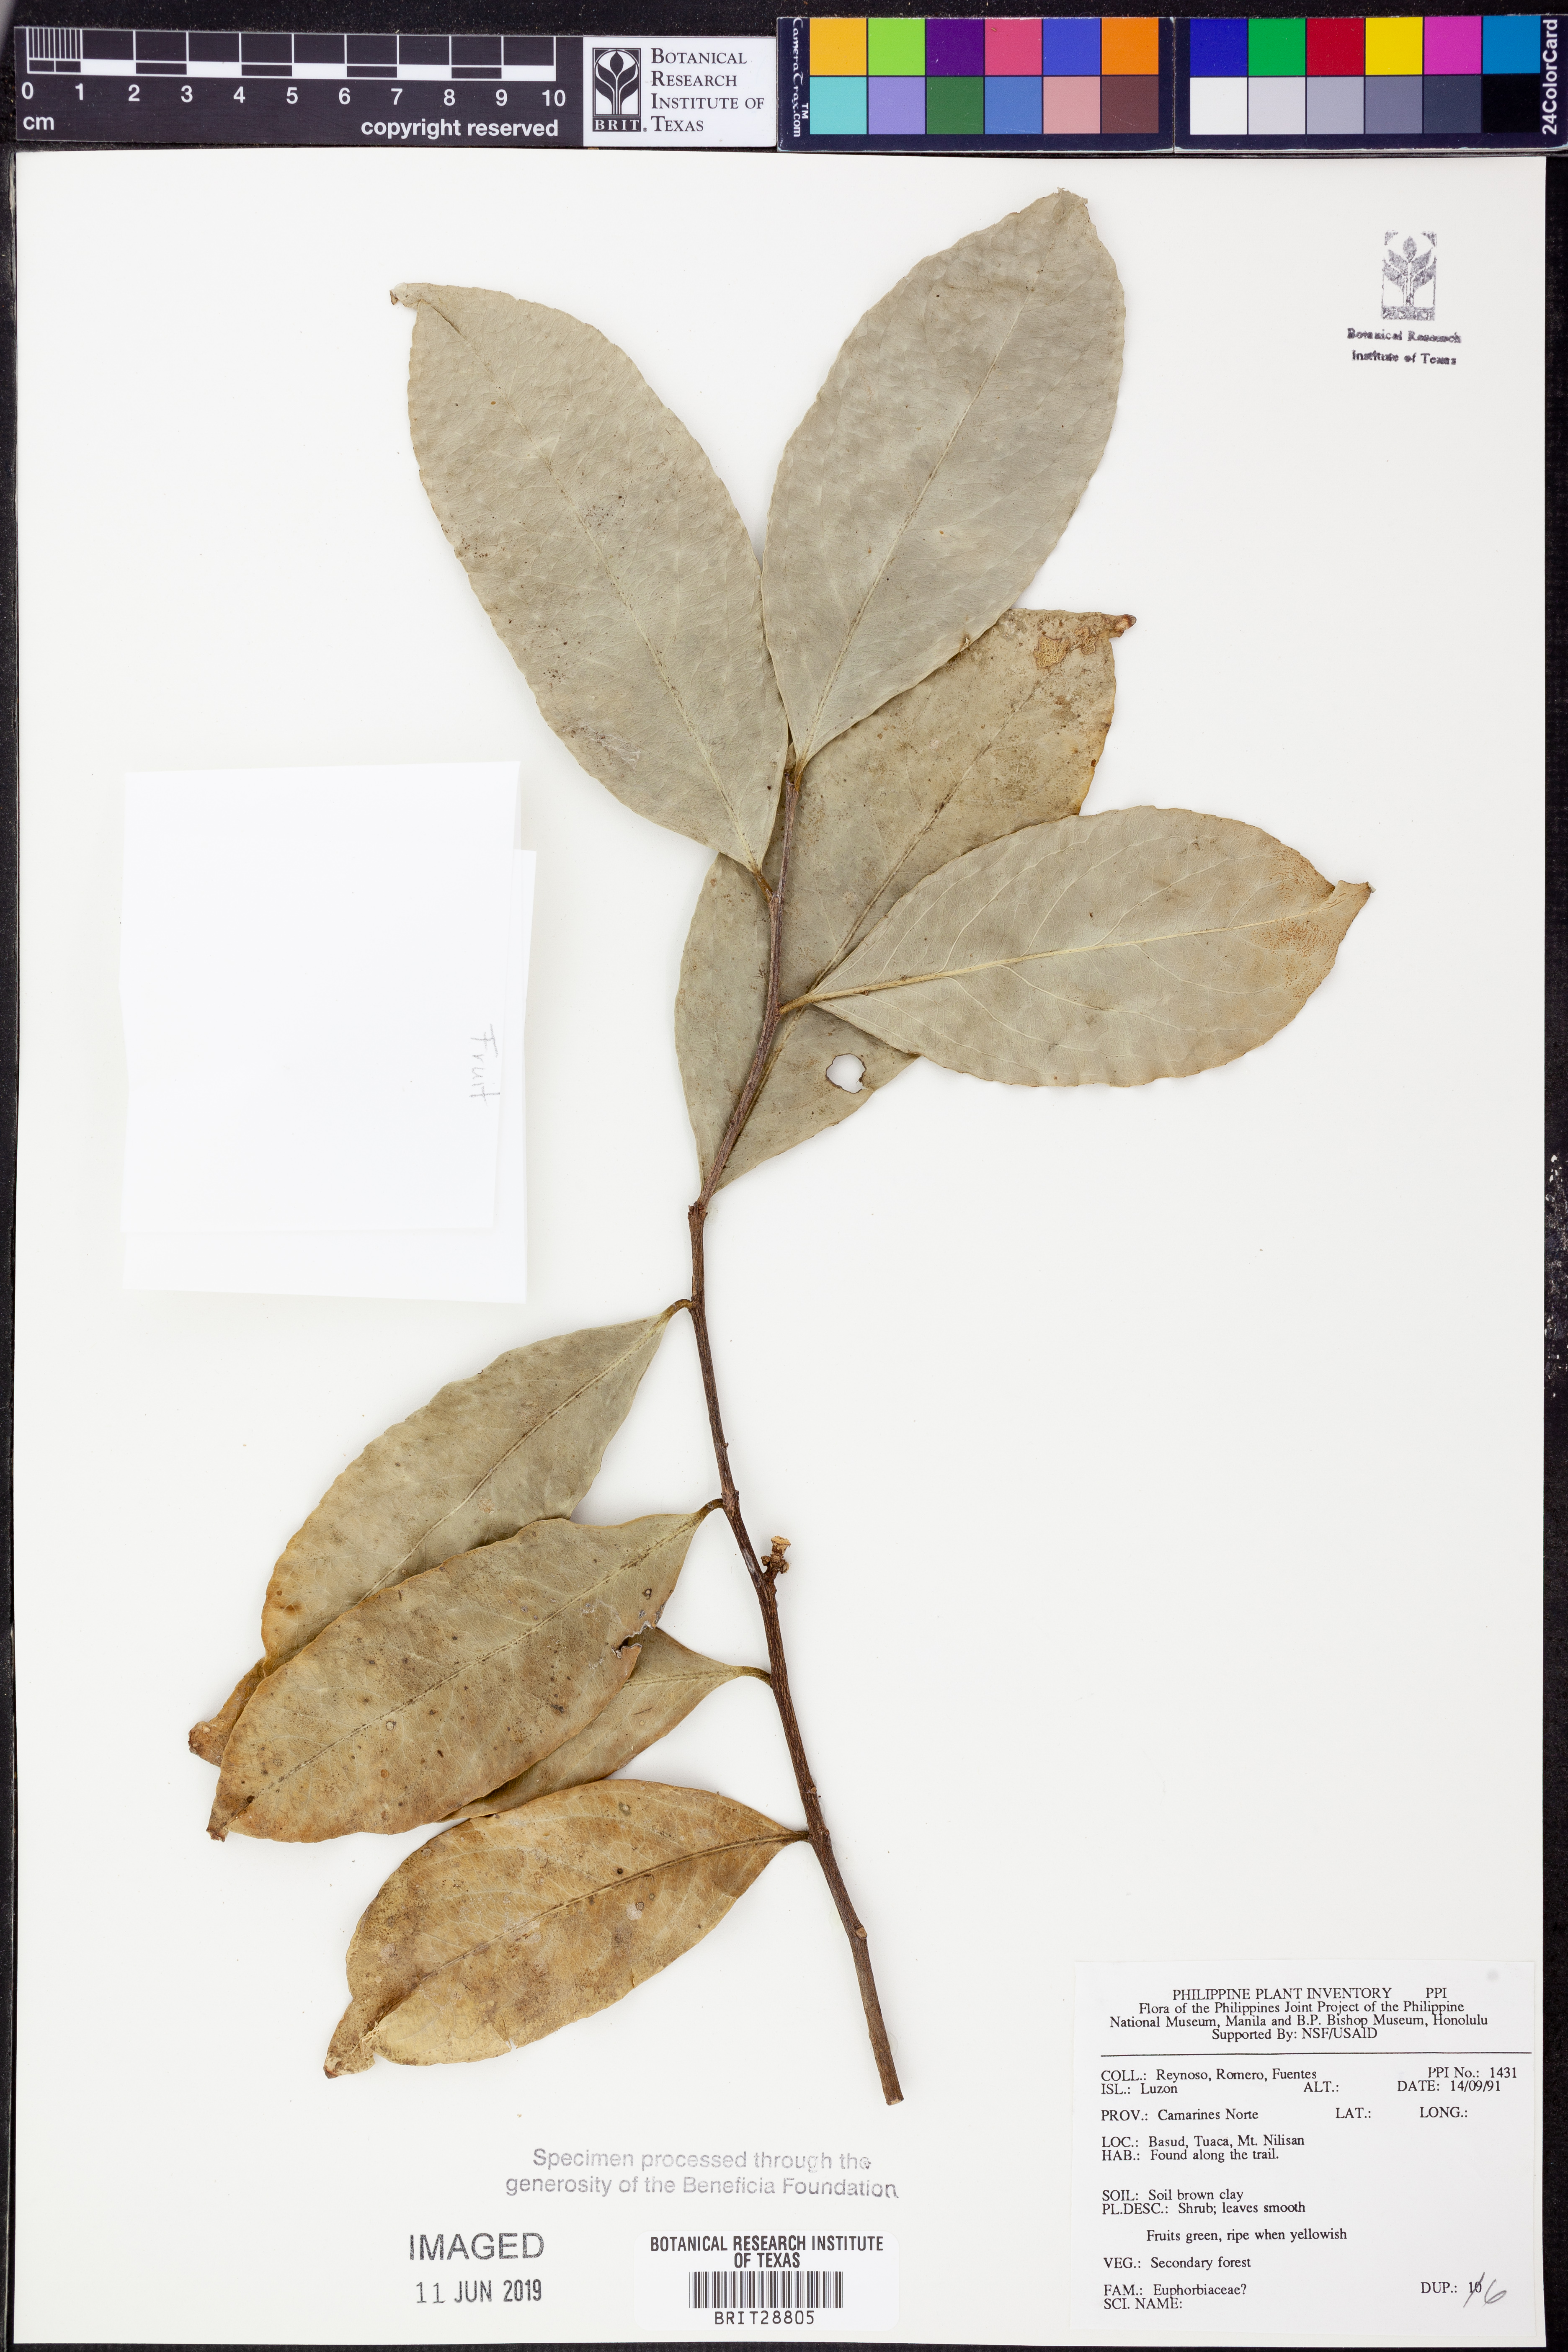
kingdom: Plantae
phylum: Tracheophyta
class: Magnoliopsida
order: Malpighiales
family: Euphorbiaceae
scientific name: Euphorbiaceae
